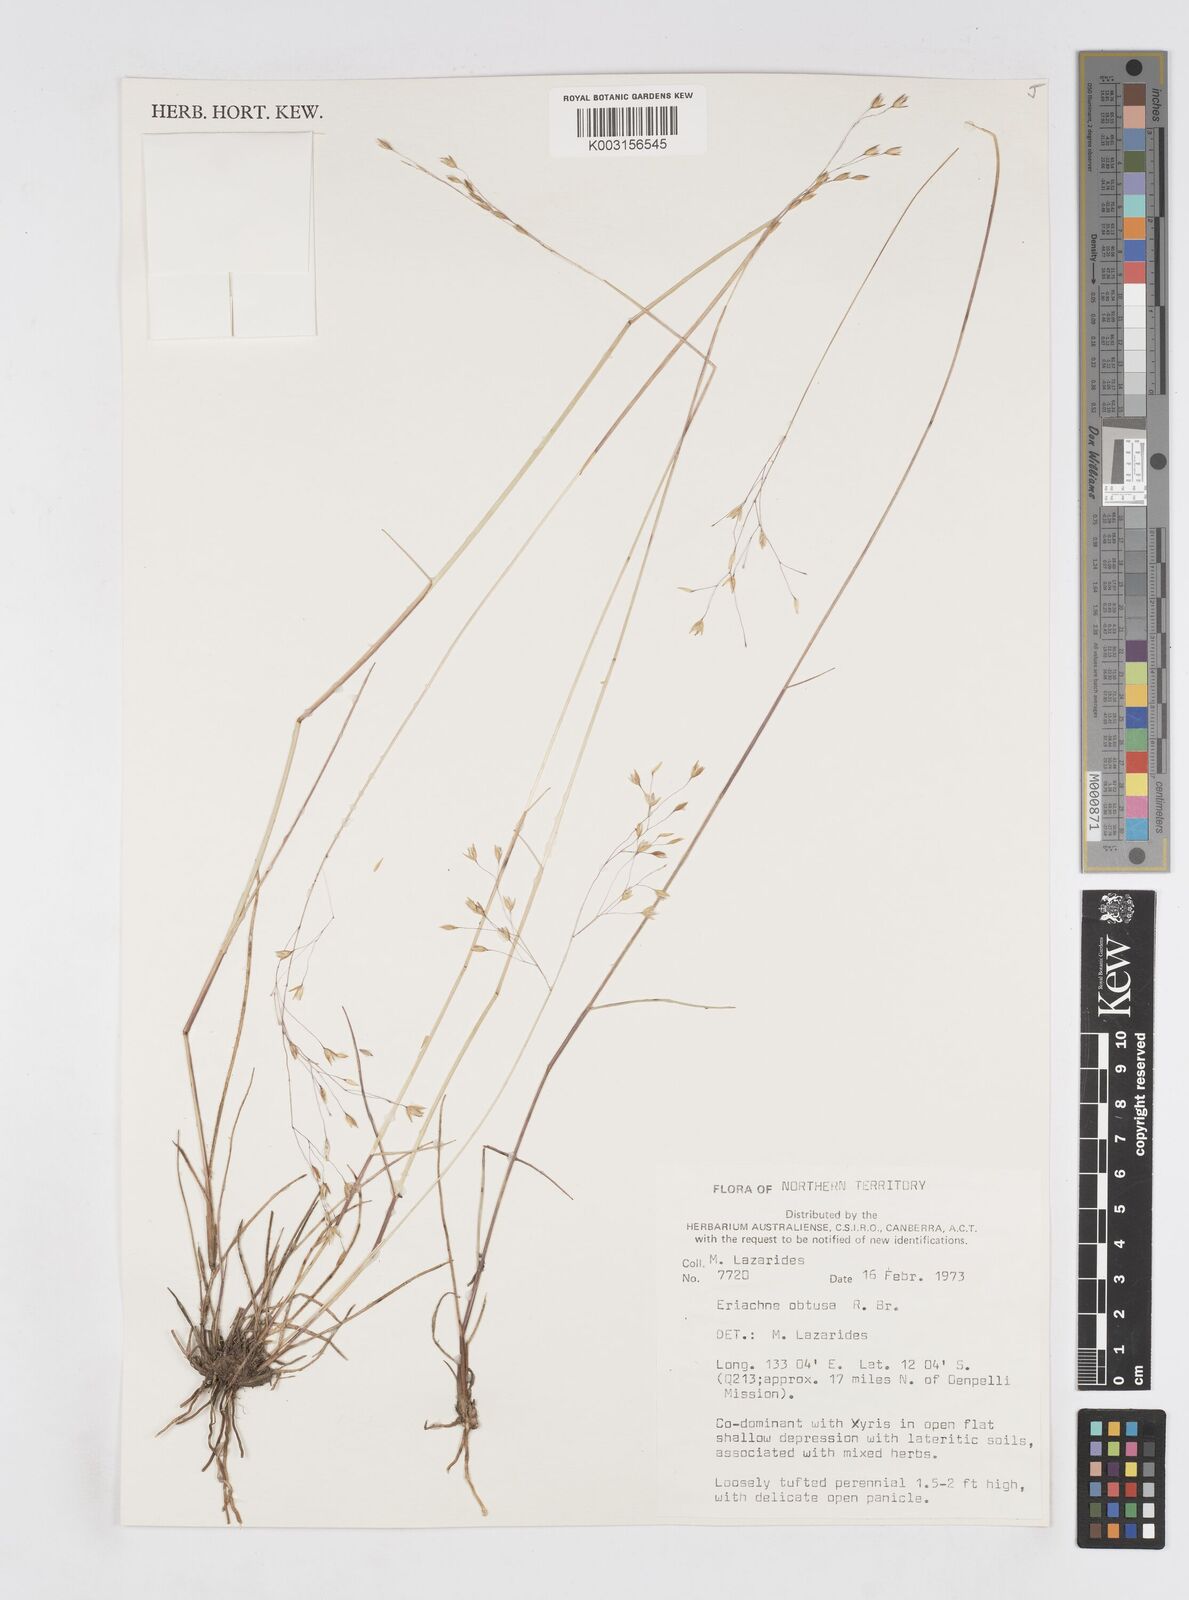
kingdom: Plantae
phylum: Tracheophyta
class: Liliopsida
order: Poales
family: Poaceae
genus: Eriachne
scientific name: Eriachne obtusa
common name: Northern wanderrie grass
